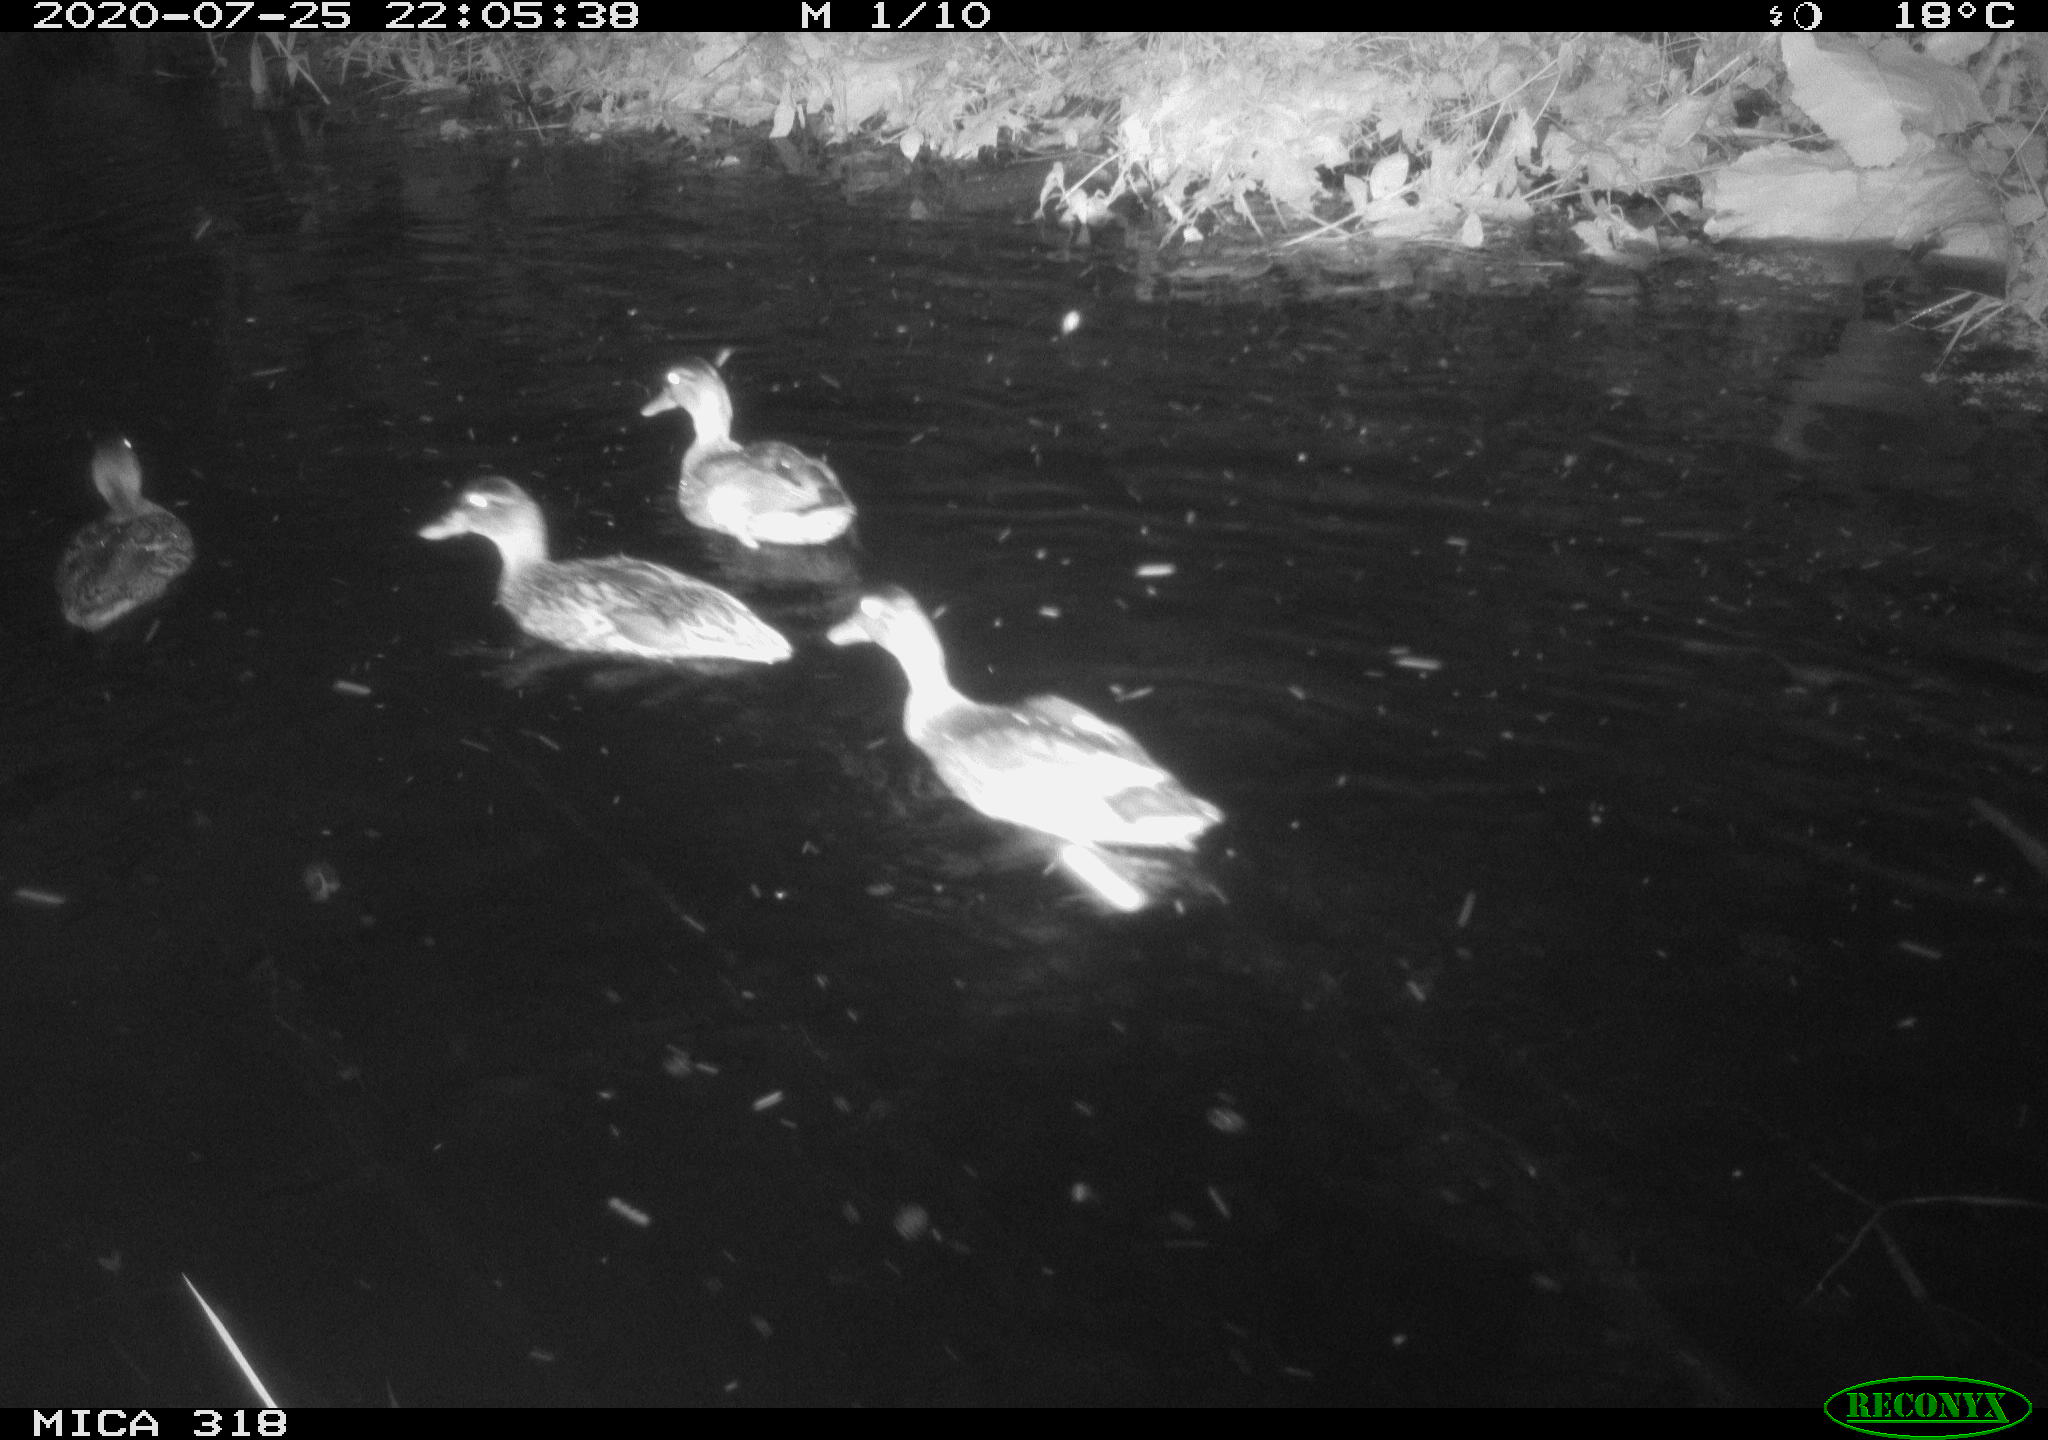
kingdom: Animalia
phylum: Chordata
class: Aves
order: Anseriformes
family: Anatidae
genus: Anas
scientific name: Anas platyrhynchos
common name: Mallard
